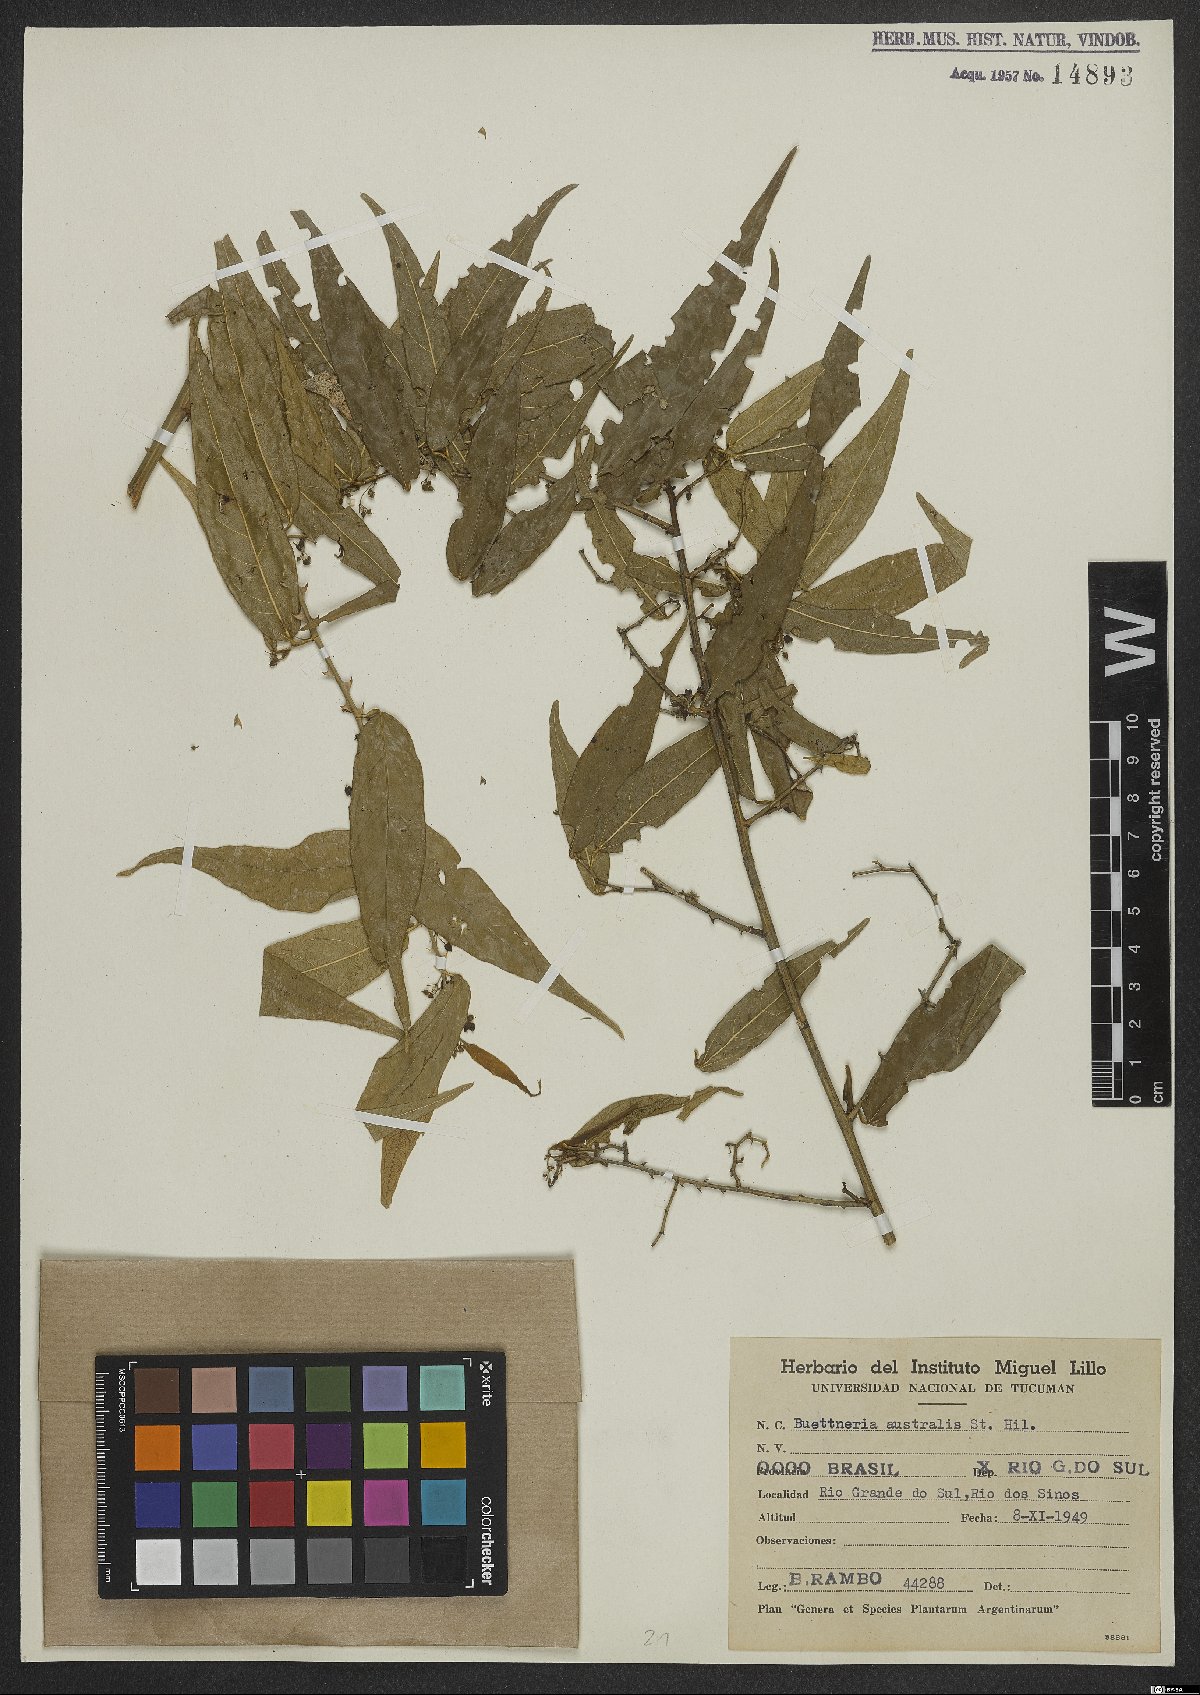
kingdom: Plantae
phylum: Tracheophyta
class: Magnoliopsida
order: Malvales
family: Malvaceae
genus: Byttneria
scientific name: Byttneria australis
